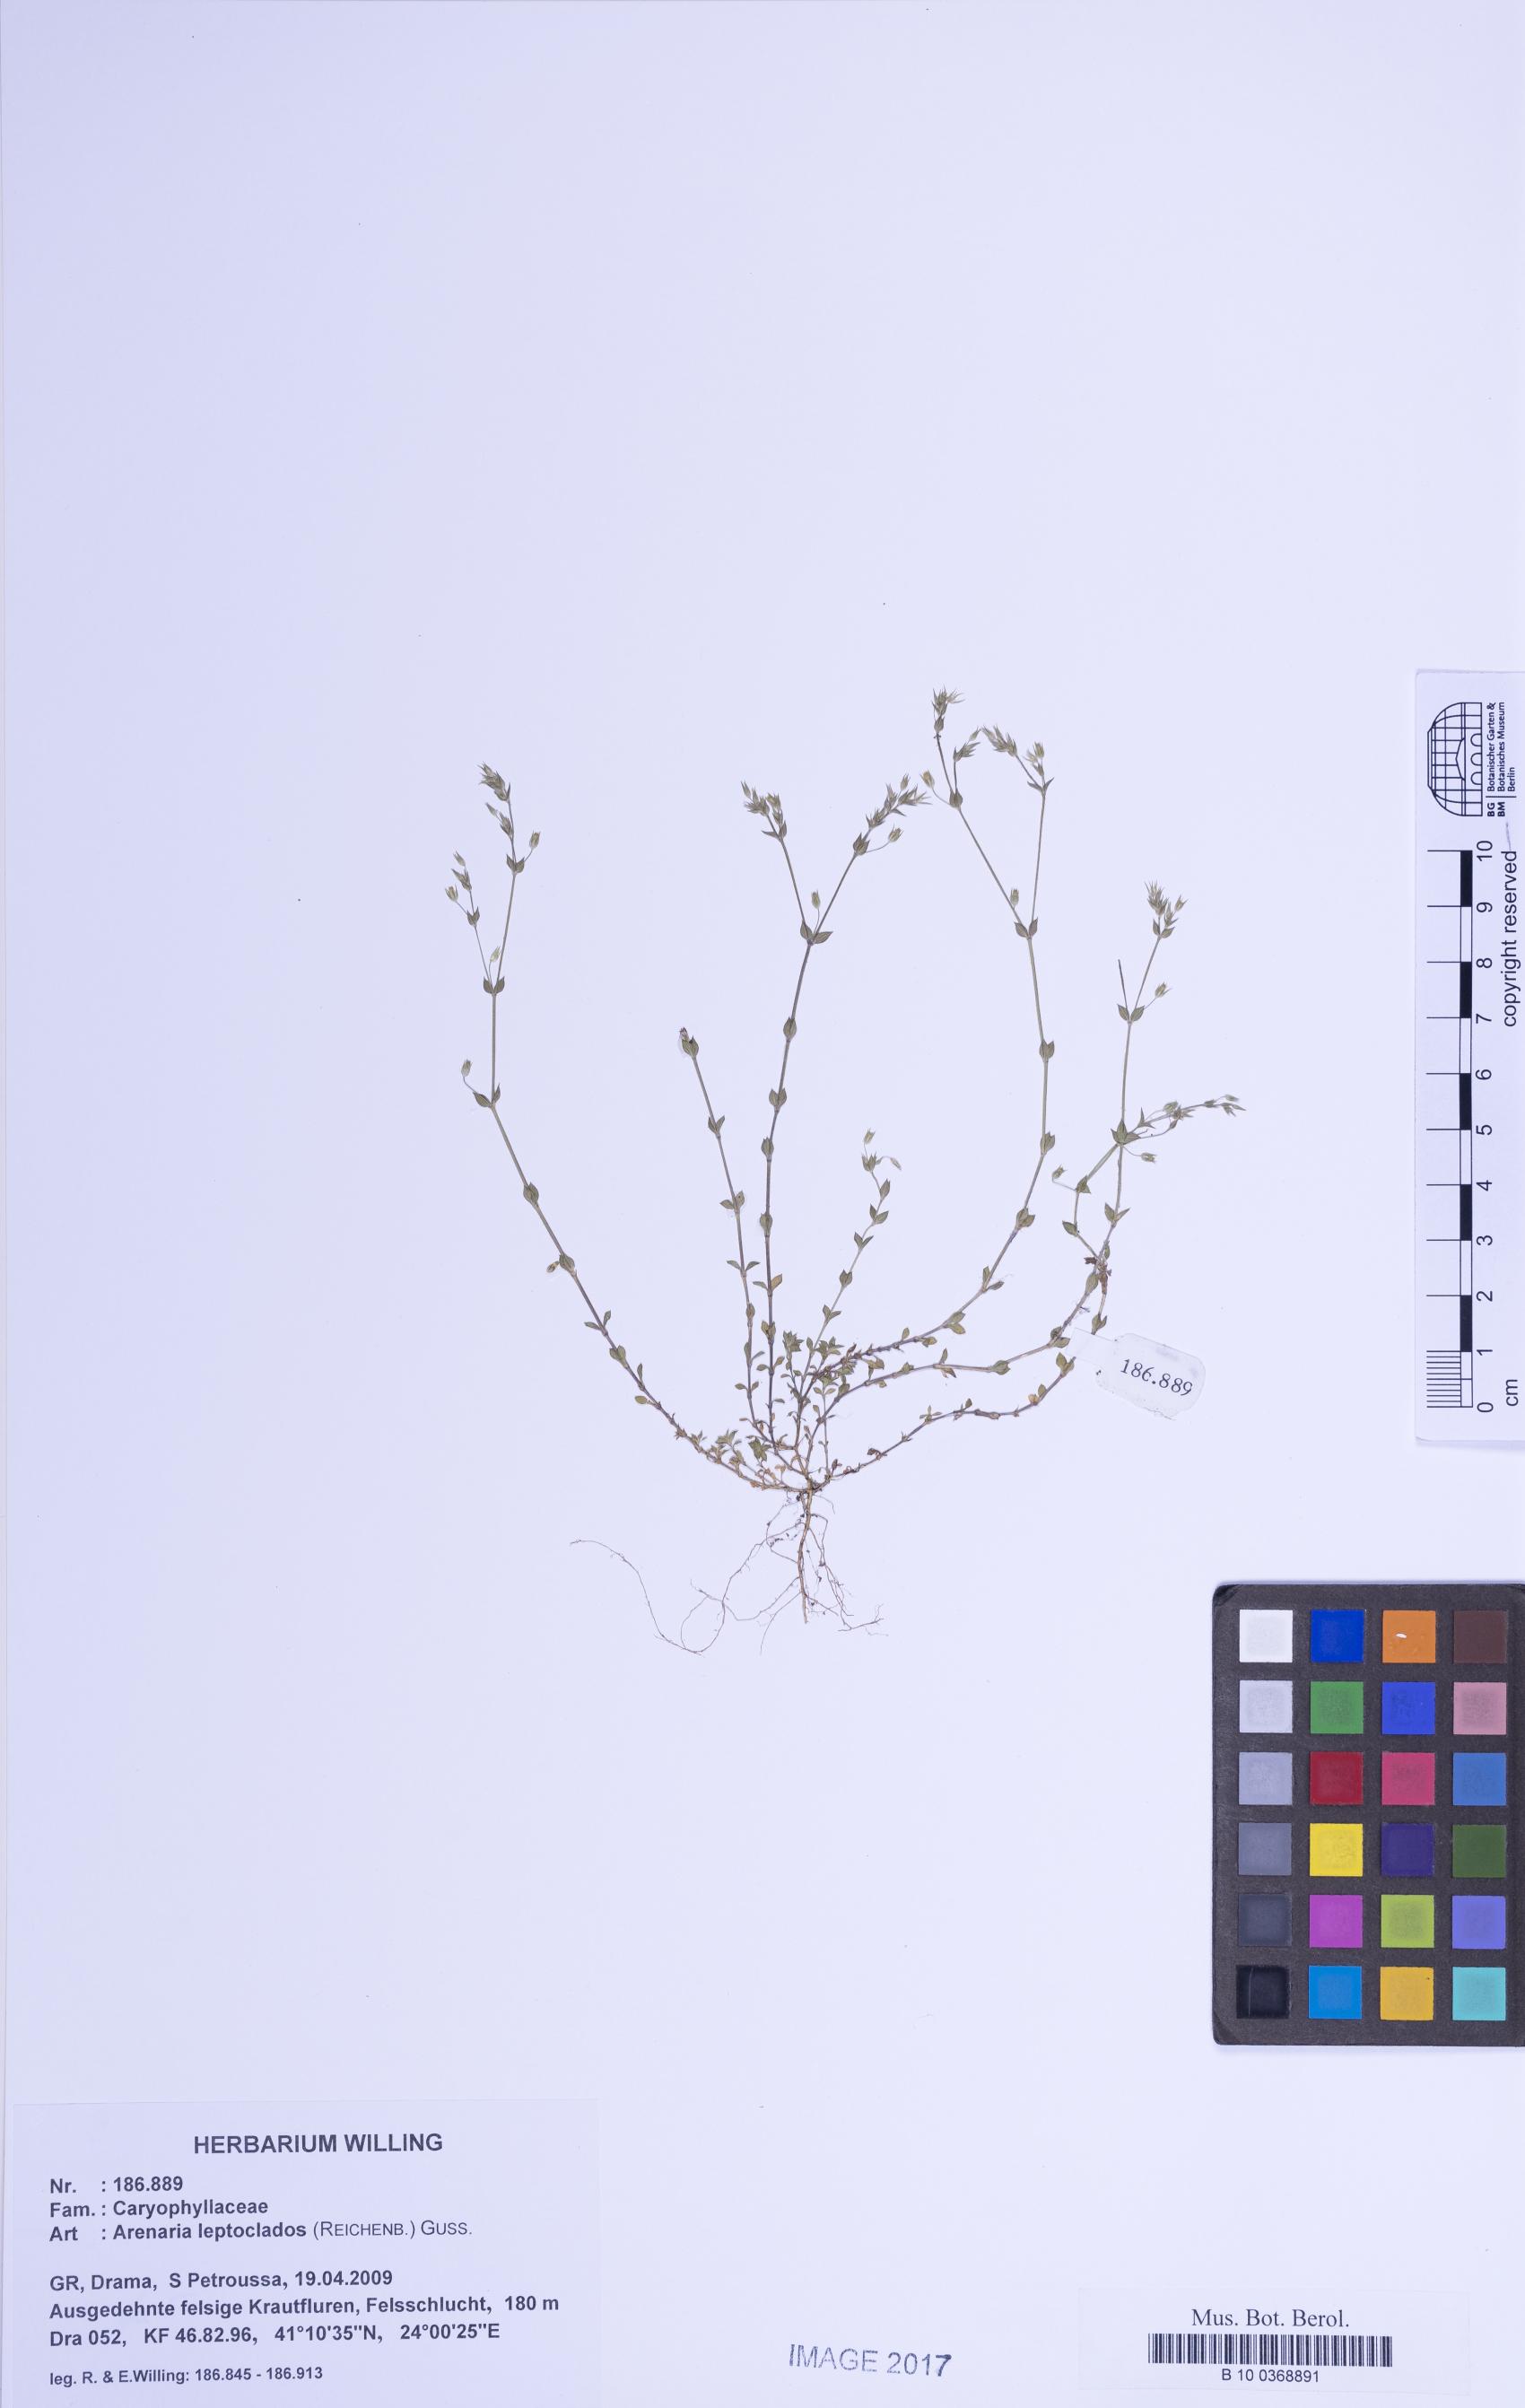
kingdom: Plantae
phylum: Tracheophyta
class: Magnoliopsida
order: Caryophyllales
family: Caryophyllaceae
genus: Arenaria
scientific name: Arenaria leptoclados
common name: Thyme-leaved sandwort
